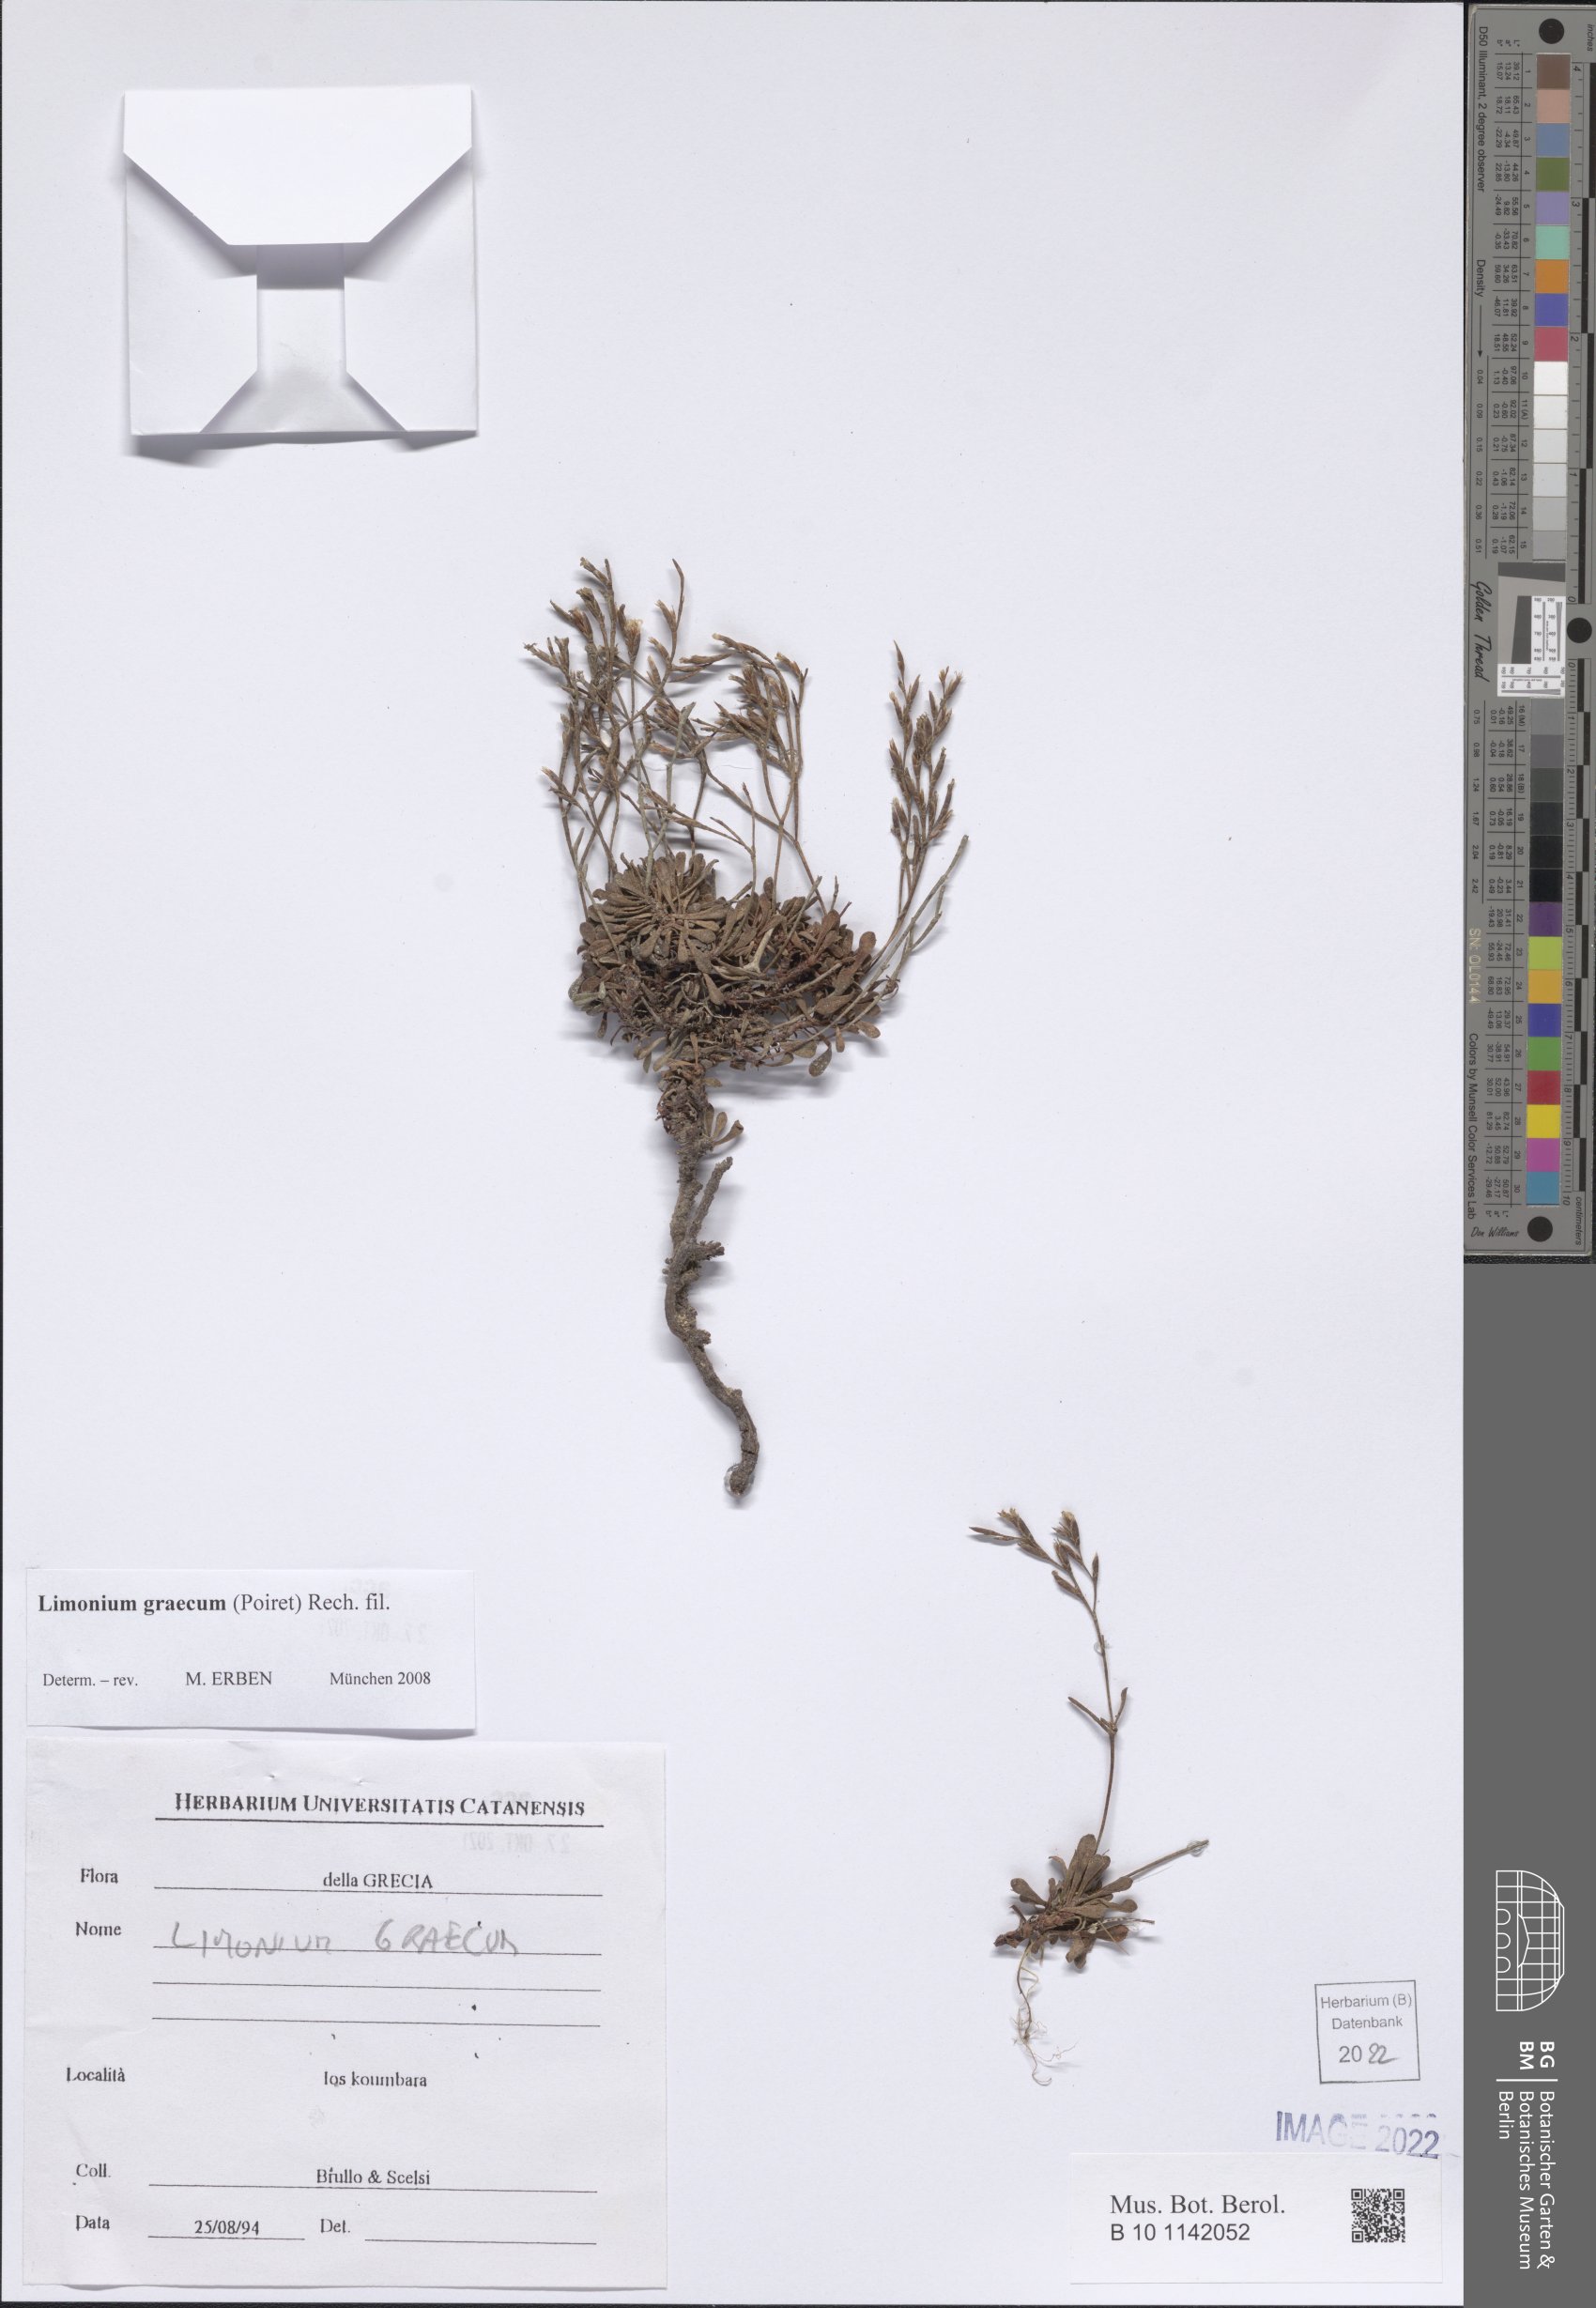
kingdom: Plantae
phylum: Tracheophyta
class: Magnoliopsida
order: Caryophyllales
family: Plumbaginaceae
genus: Limonium
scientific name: Limonium graecum
